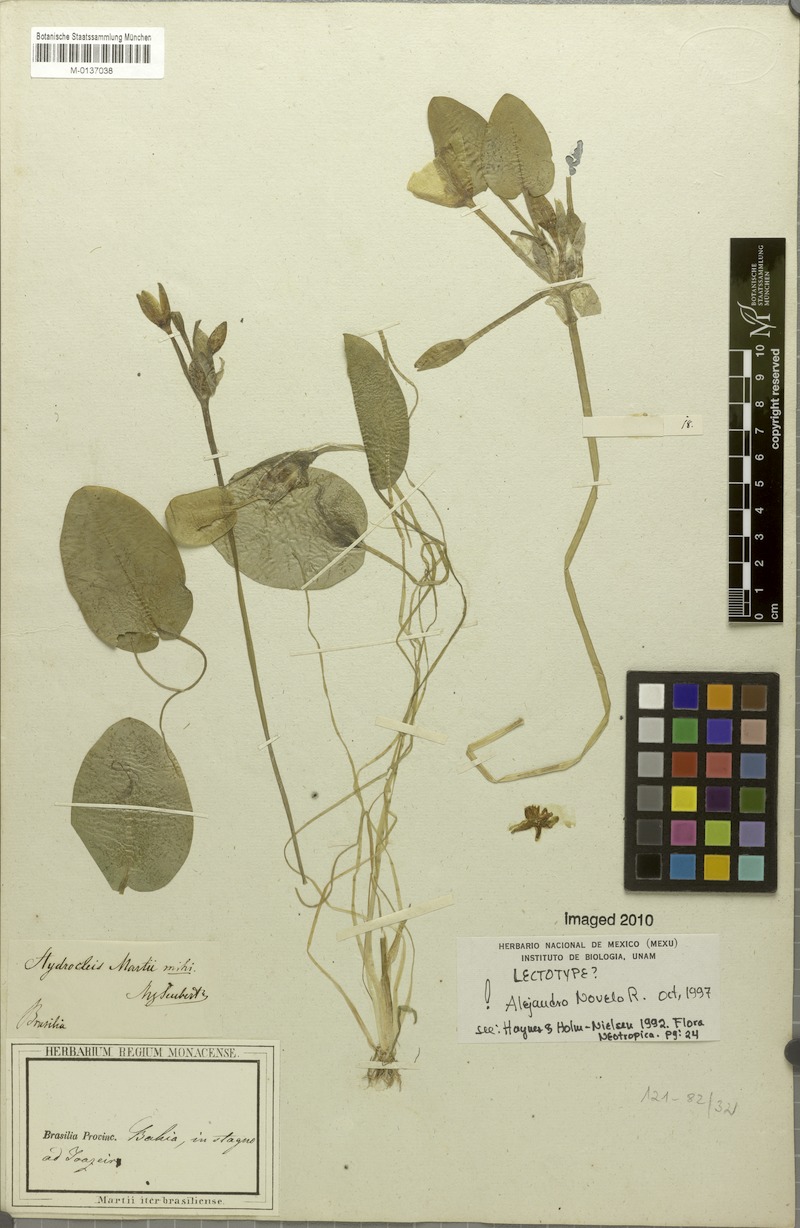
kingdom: Plantae
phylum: Tracheophyta
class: Liliopsida
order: Alismatales
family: Alismataceae
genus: Hydrocleys
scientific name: Hydrocleys martii
